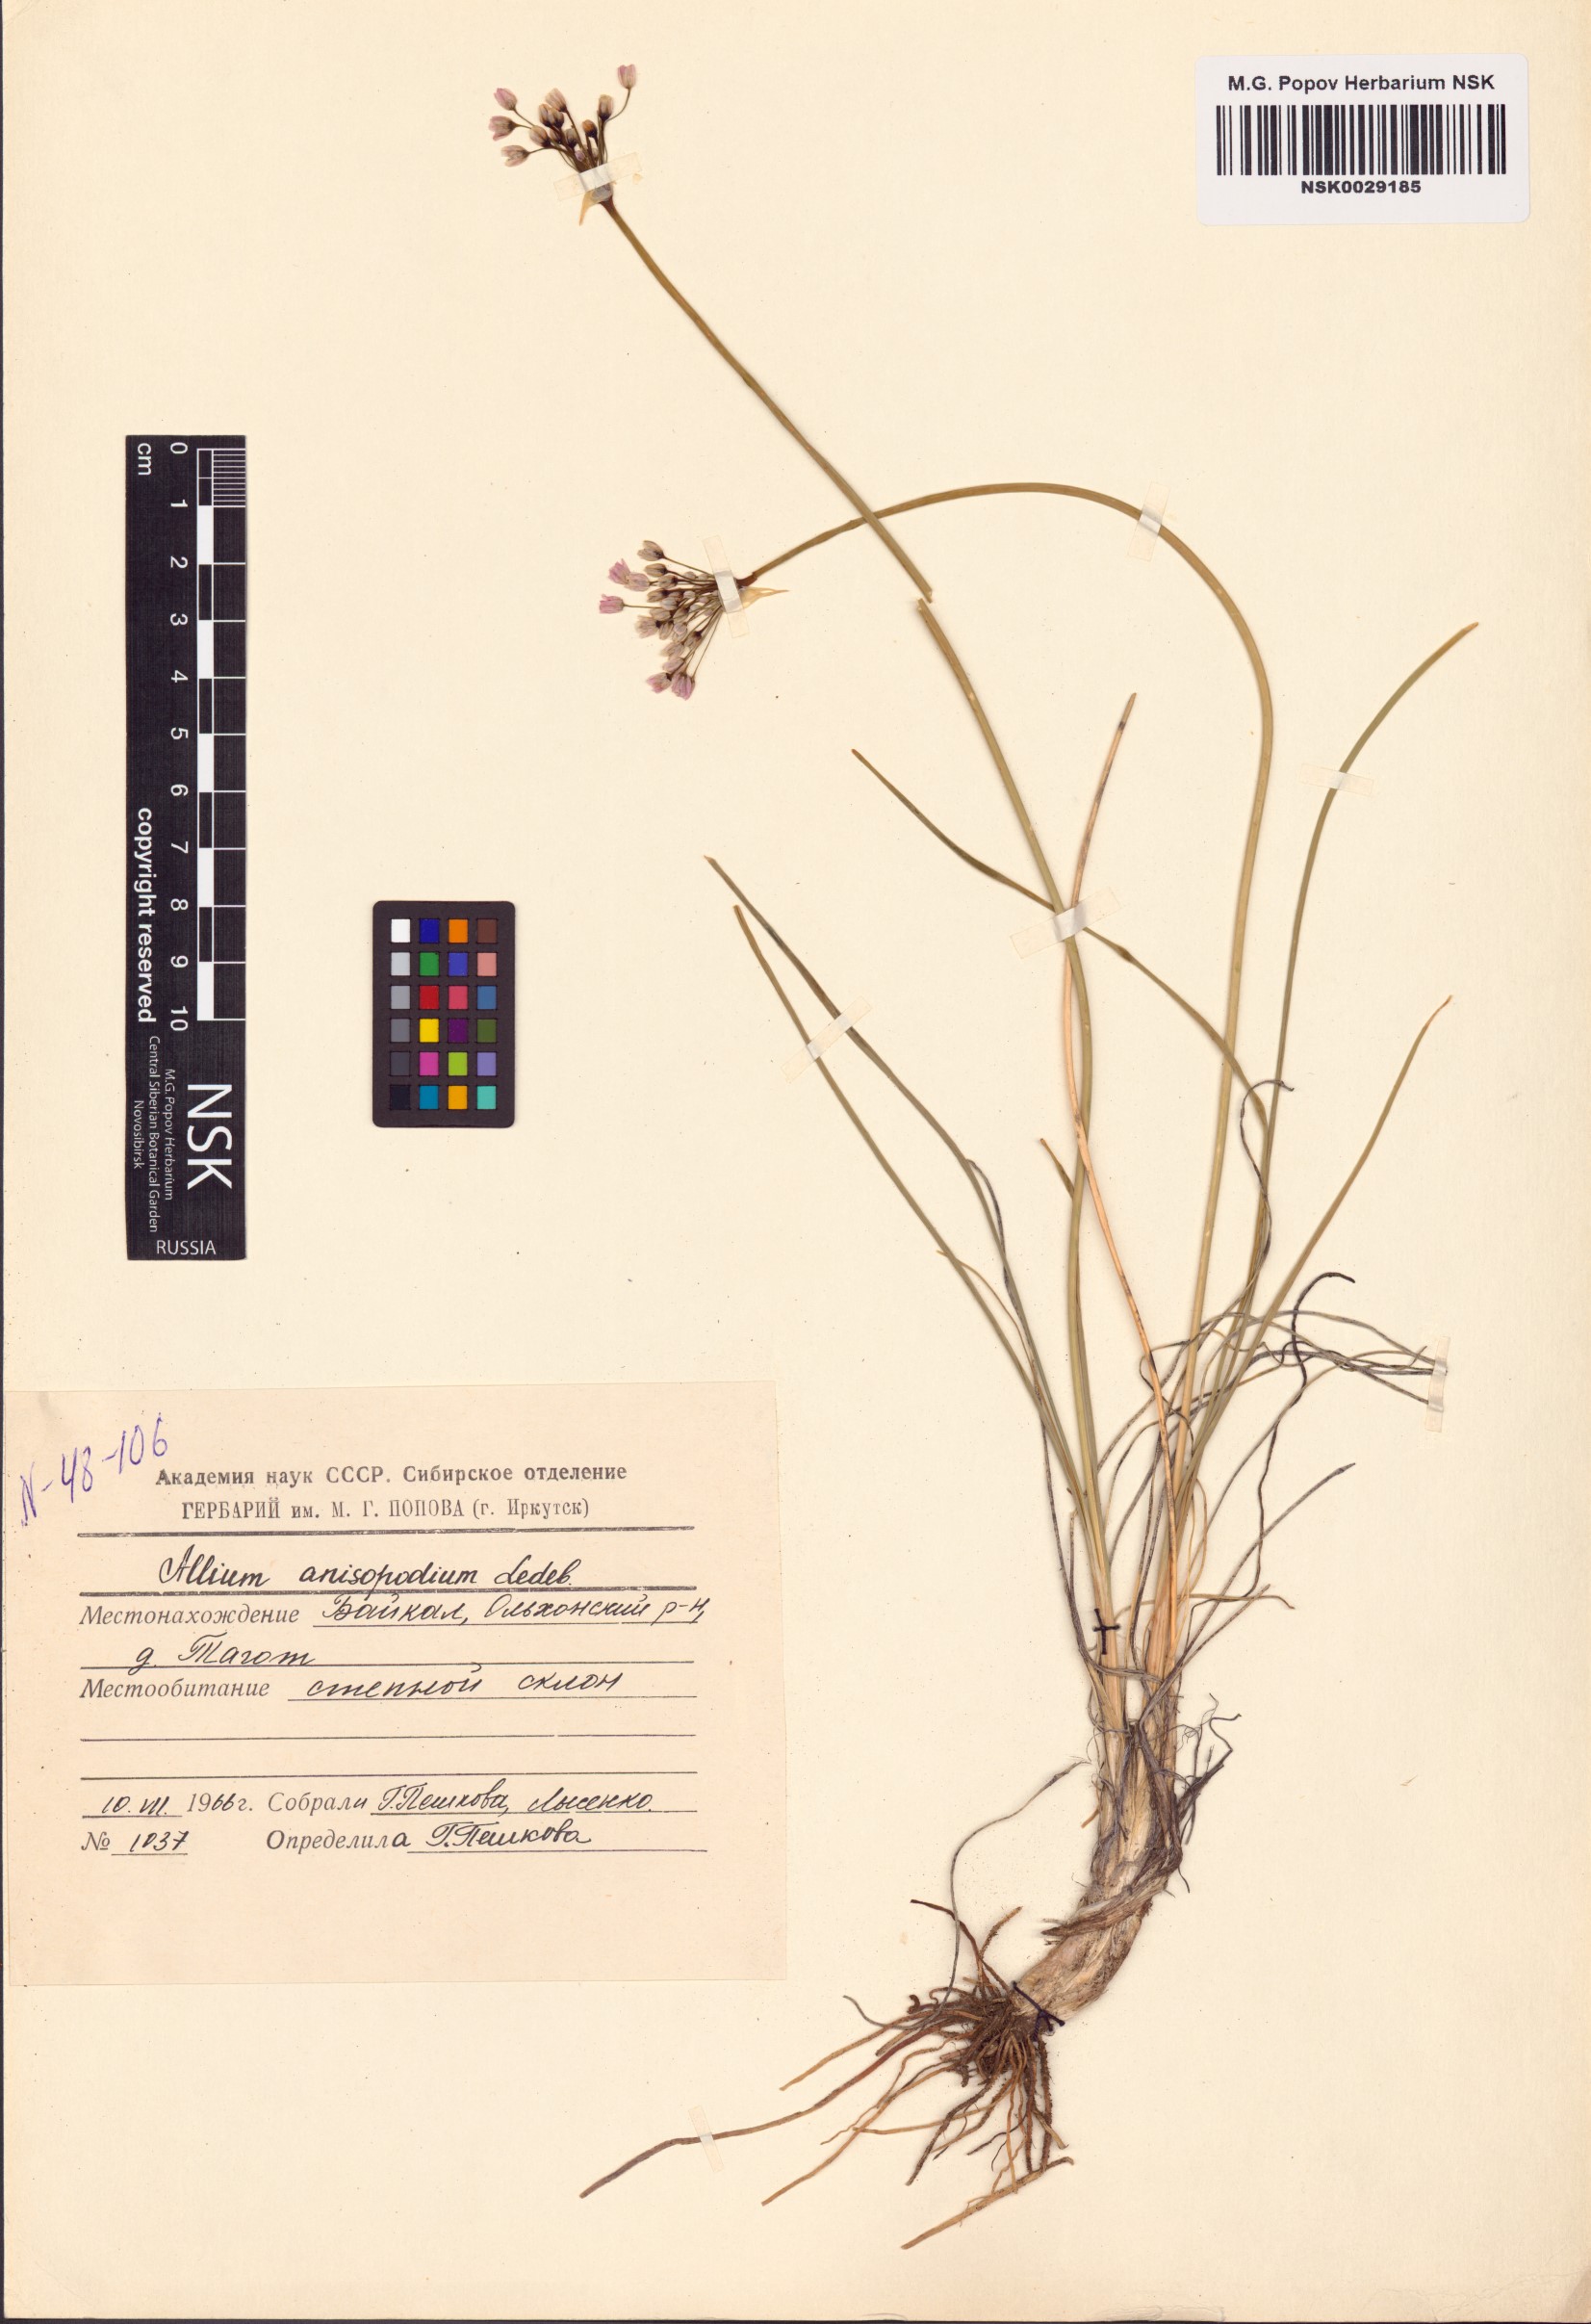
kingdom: Plantae
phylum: Tracheophyta
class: Liliopsida
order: Asparagales
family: Amaryllidaceae
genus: Allium
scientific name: Allium anisopodium
